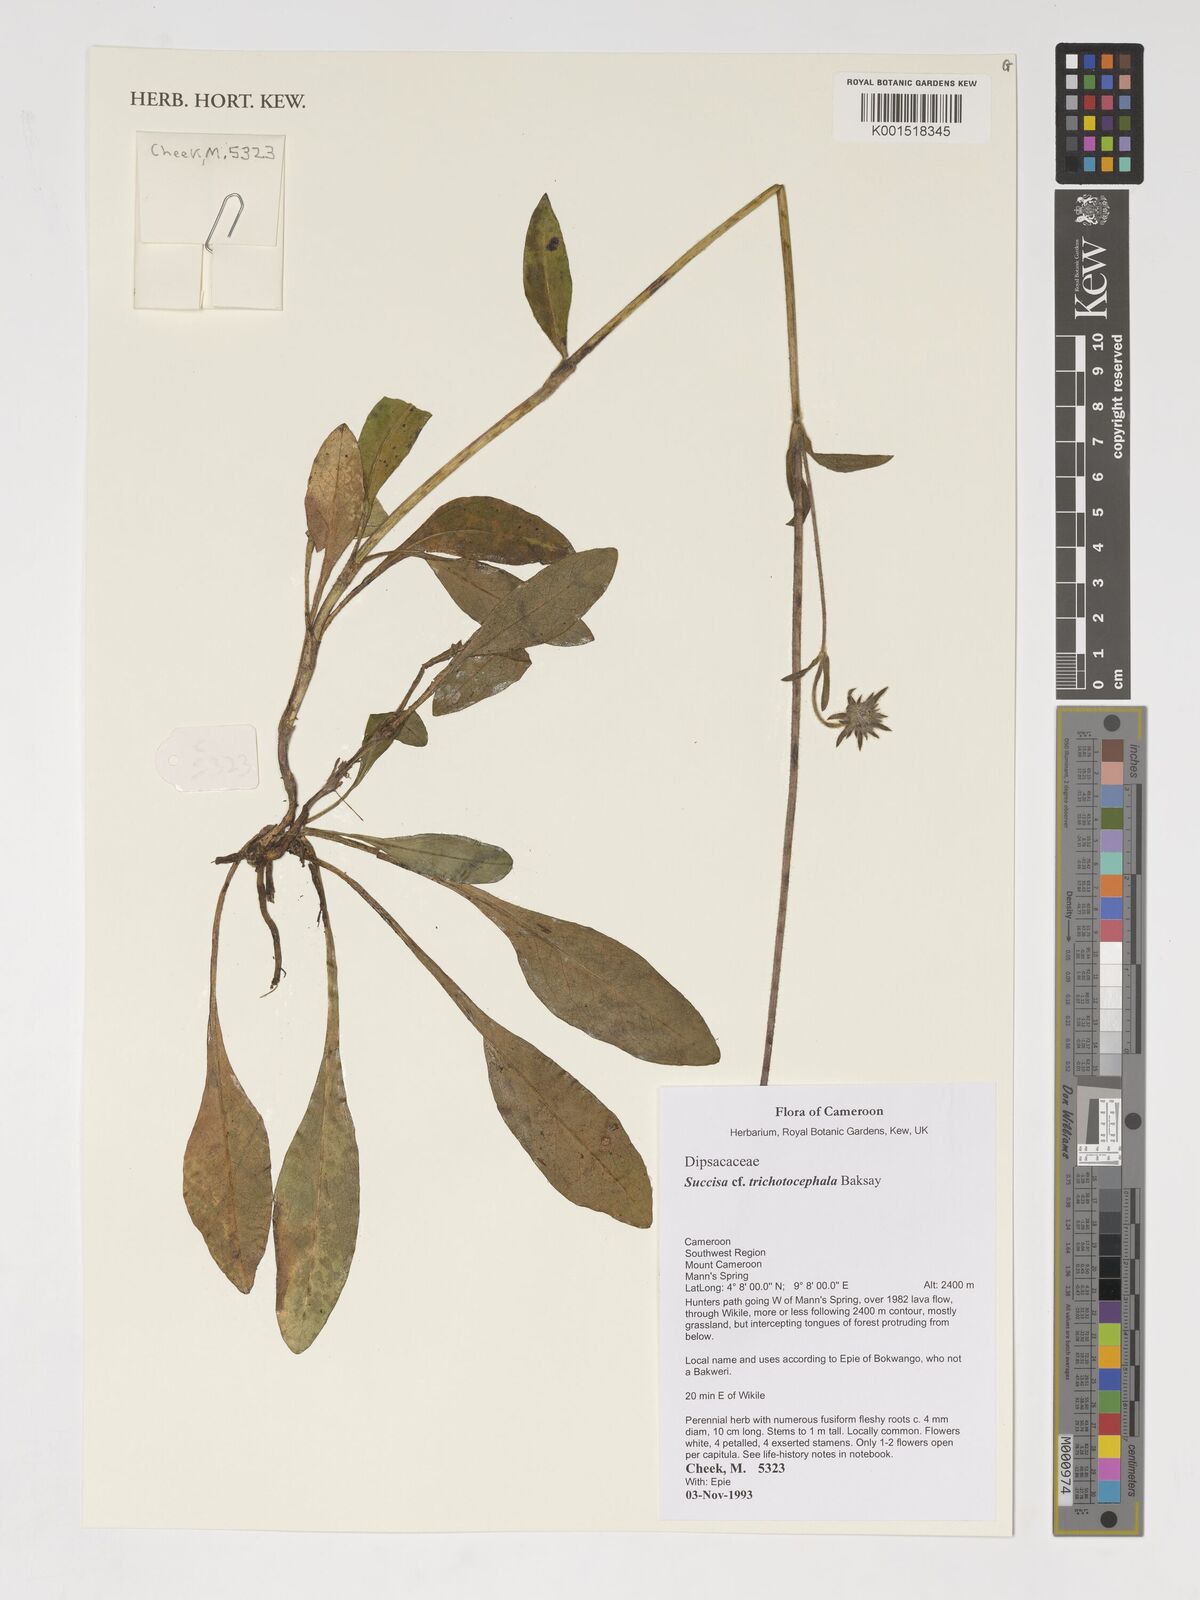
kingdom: Plantae
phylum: Tracheophyta
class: Magnoliopsida
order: Dipsacales
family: Caprifoliaceae
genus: Succisa
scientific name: Succisa trichotocephala
